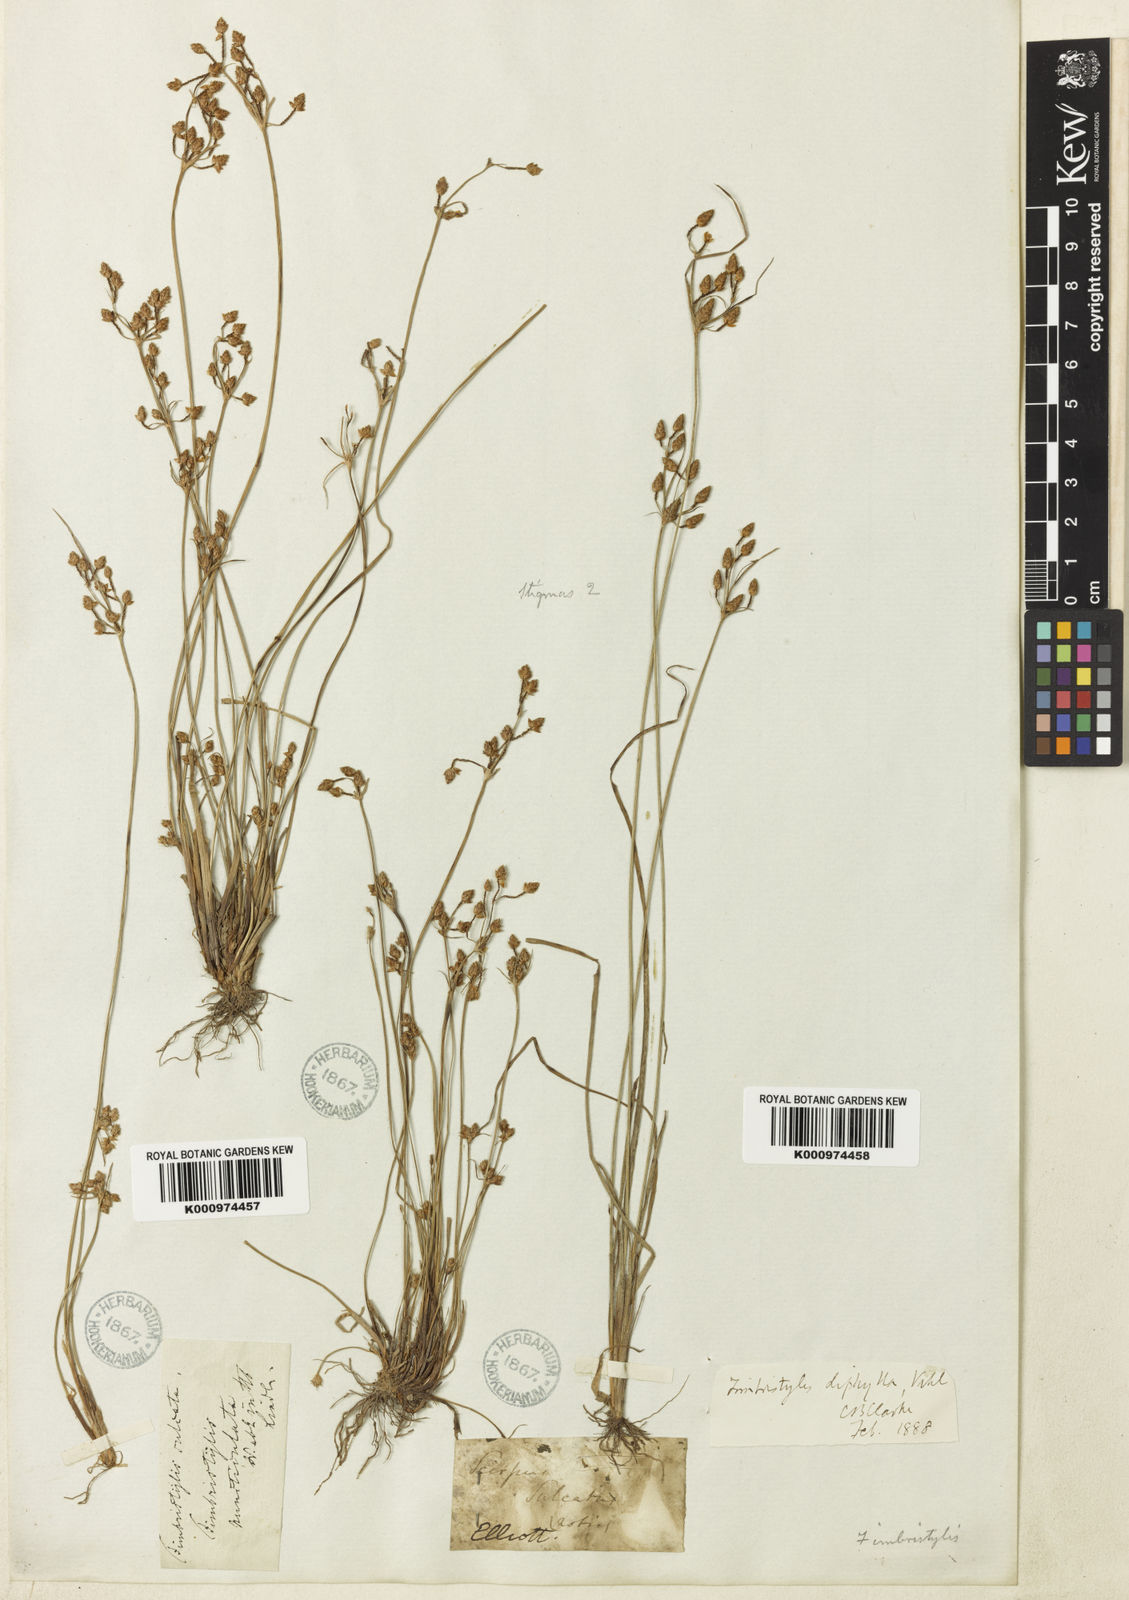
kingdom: Plantae
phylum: Tracheophyta
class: Liliopsida
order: Poales
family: Cyperaceae
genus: Fimbristylis
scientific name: Fimbristylis dichotoma
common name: Forked fimbry
